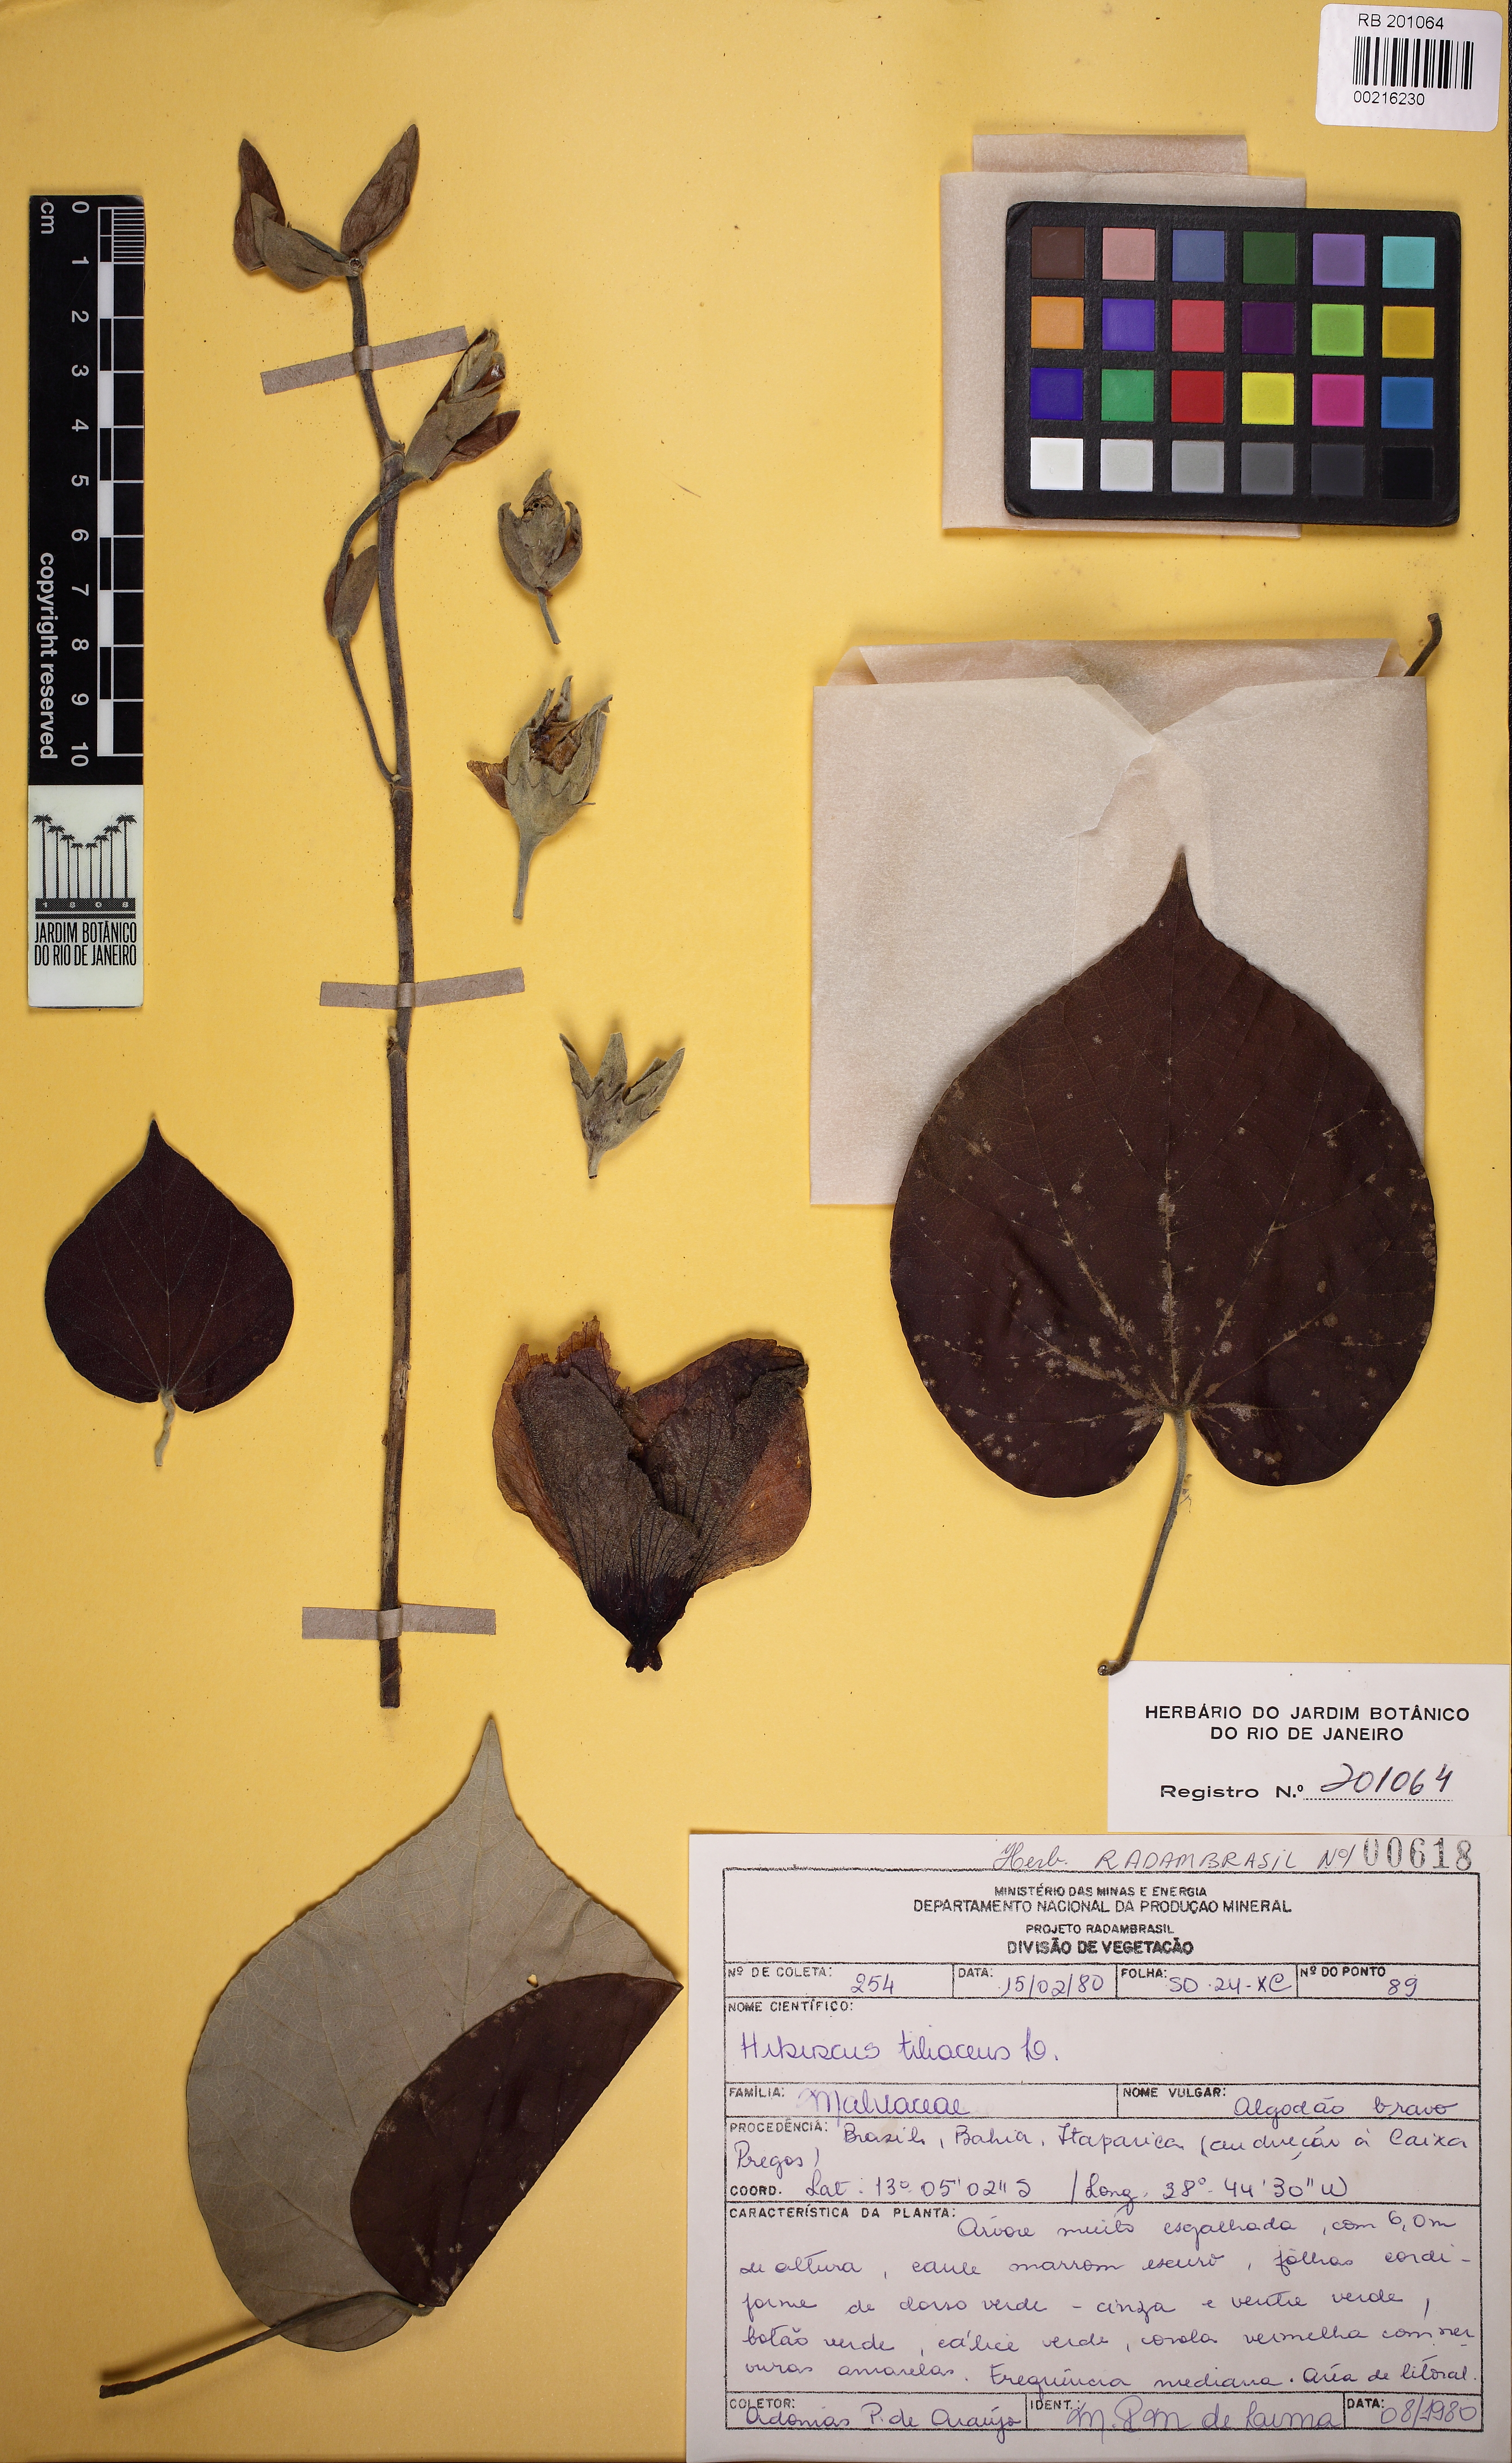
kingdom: Plantae
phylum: Tracheophyta
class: Magnoliopsida
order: Malvales
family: Malvaceae
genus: Talipariti
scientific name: Talipariti tiliaceum
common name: Sea hibiscus
